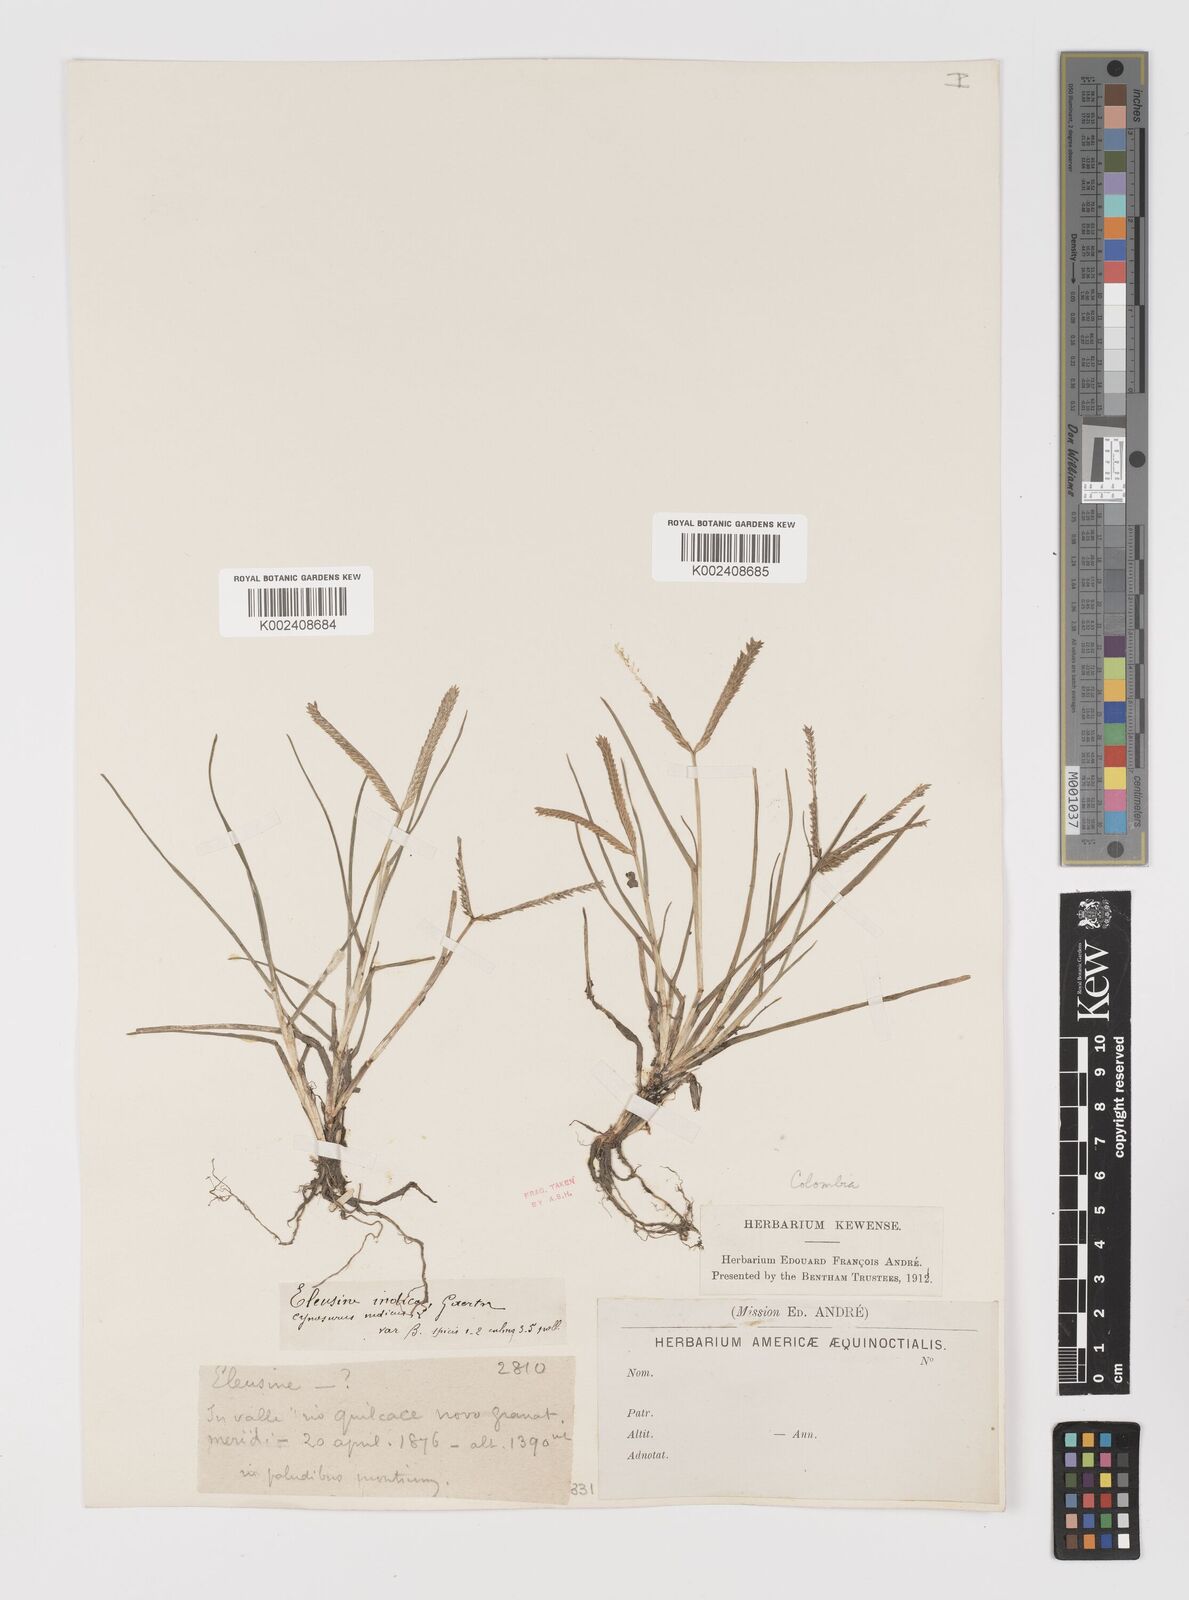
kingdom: Plantae
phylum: Tracheophyta
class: Liliopsida
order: Poales
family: Poaceae
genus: Eleusine
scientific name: Eleusine indica
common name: Yard-grass
